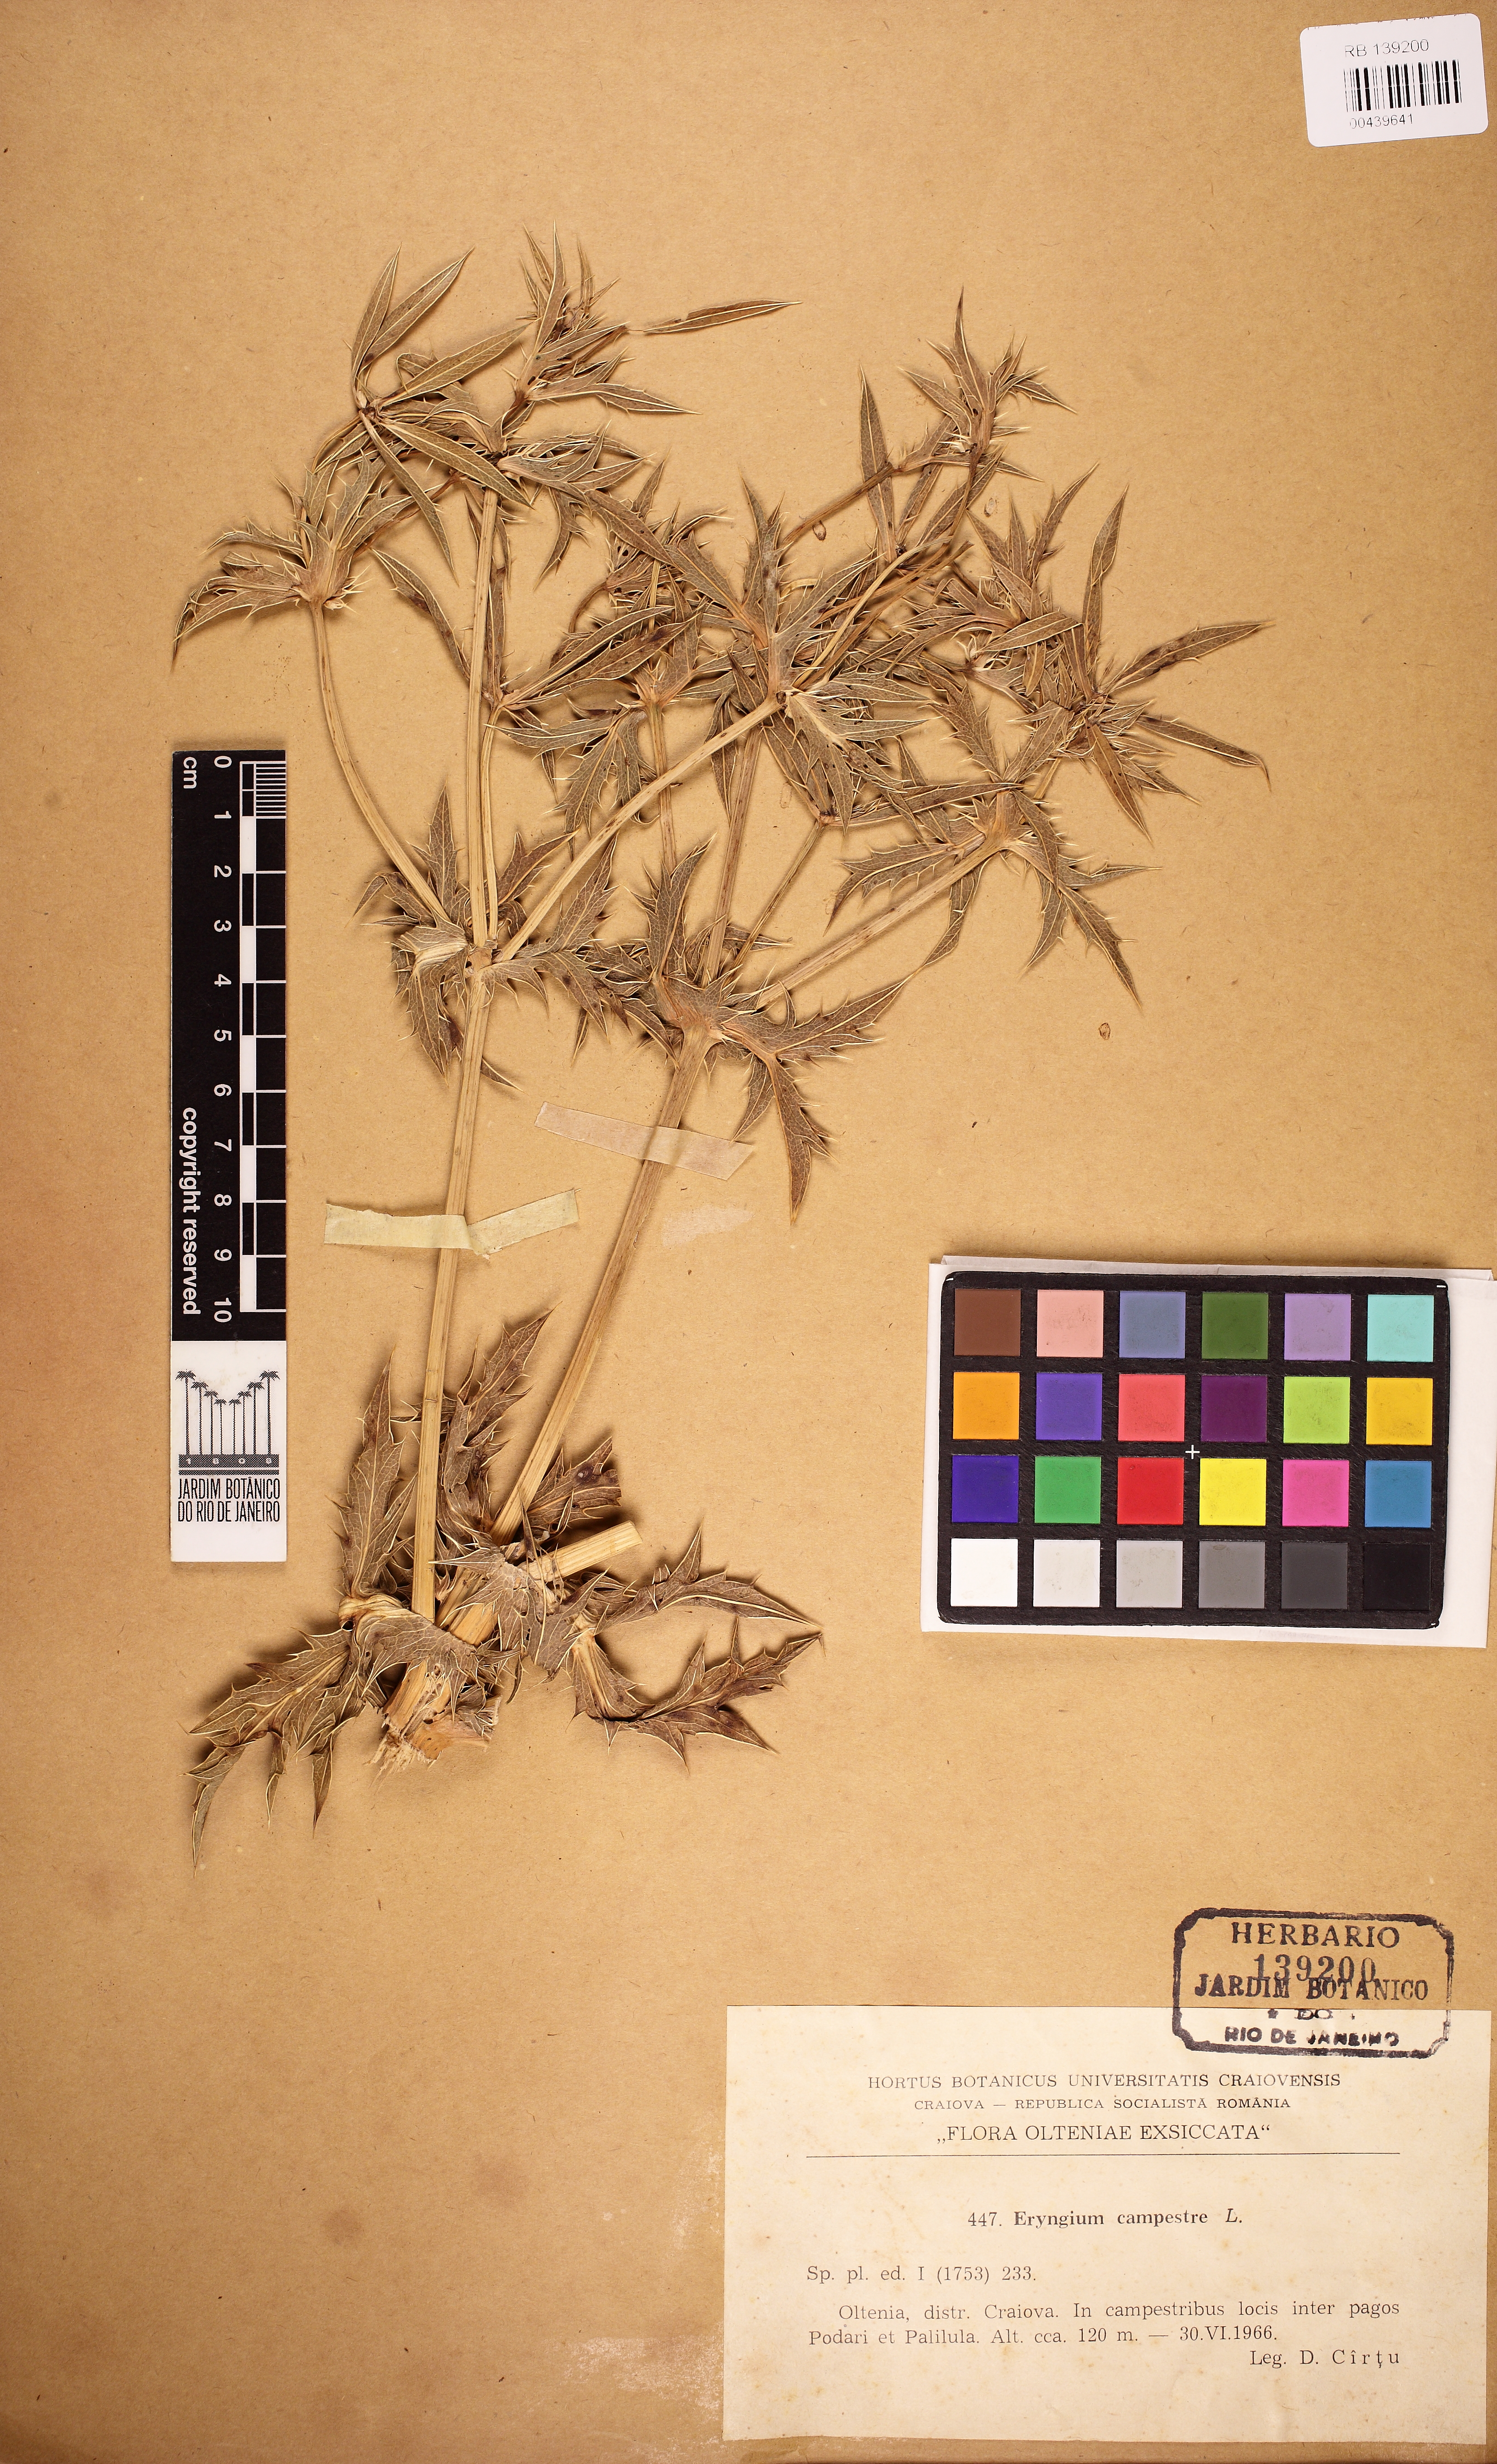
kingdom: Plantae
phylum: Tracheophyta
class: Magnoliopsida
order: Apiales
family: Apiaceae
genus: Eryngium
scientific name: Eryngium campestre
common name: Field eryngo
